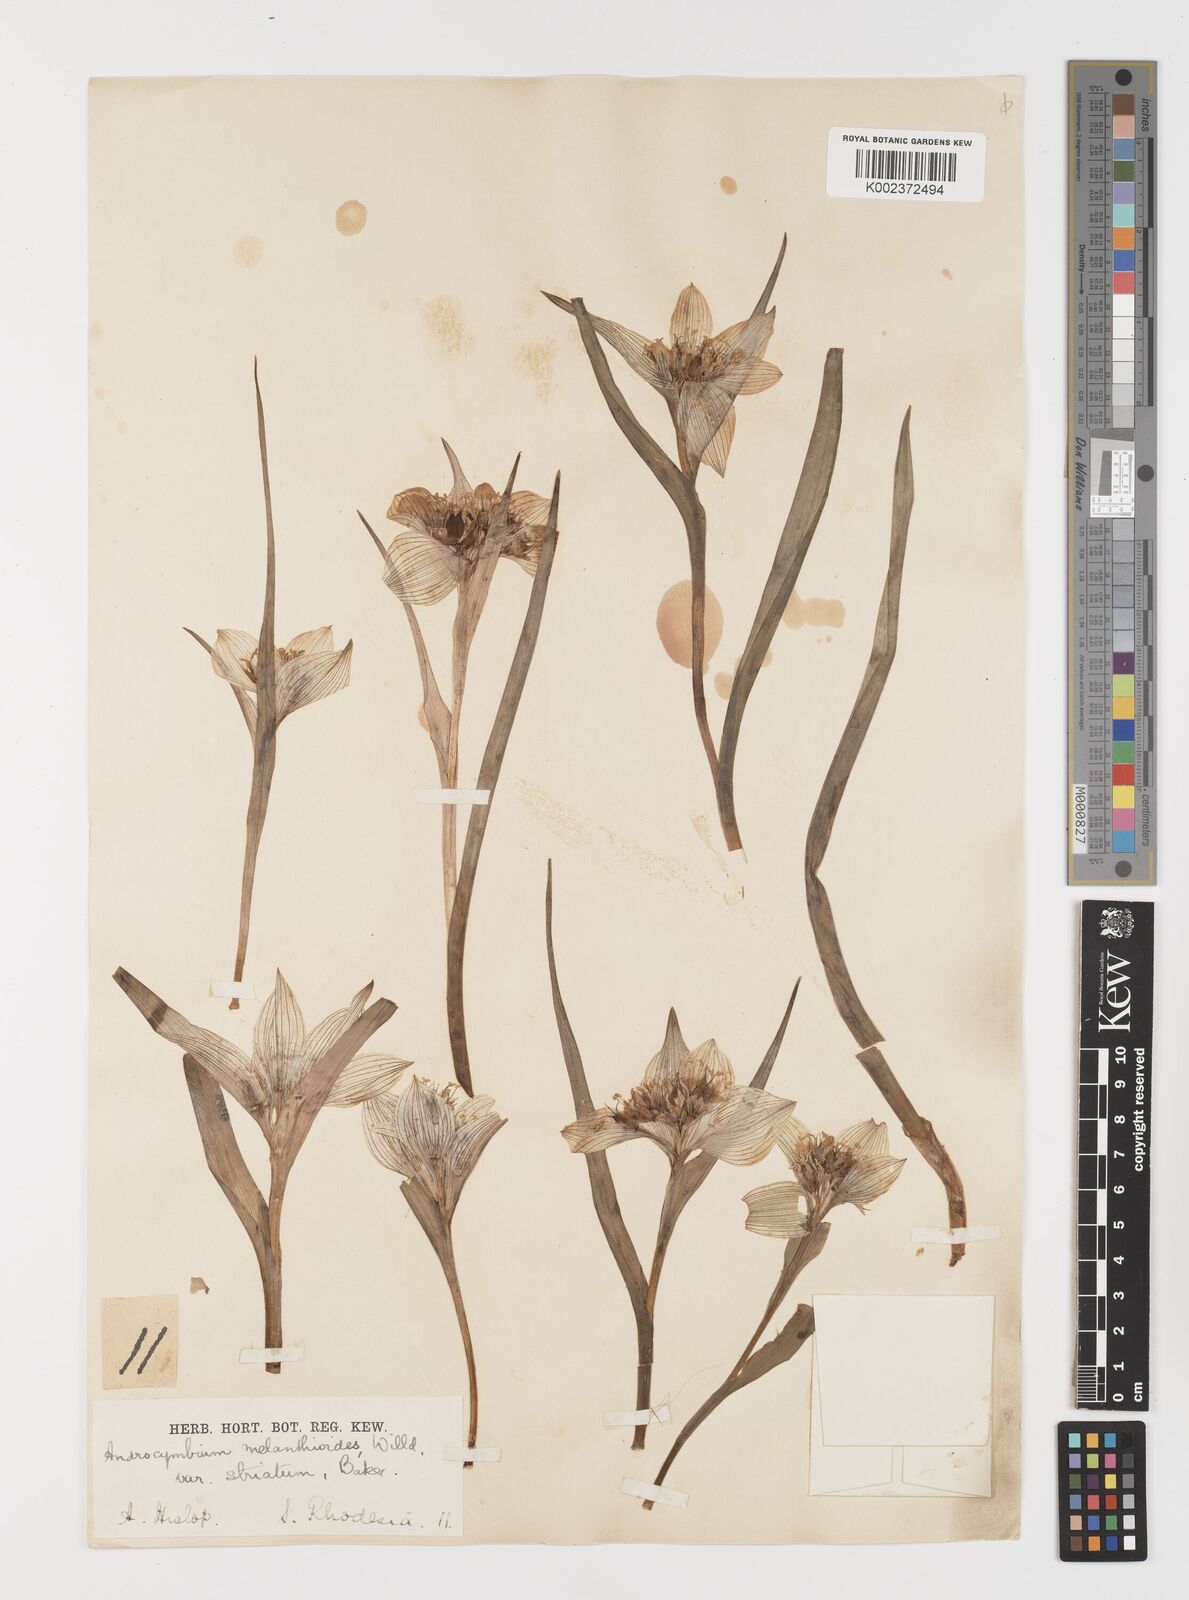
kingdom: Plantae
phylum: Tracheophyta
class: Liliopsida
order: Liliales
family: Colchicaceae
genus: Colchicum
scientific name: Colchicum striatum
